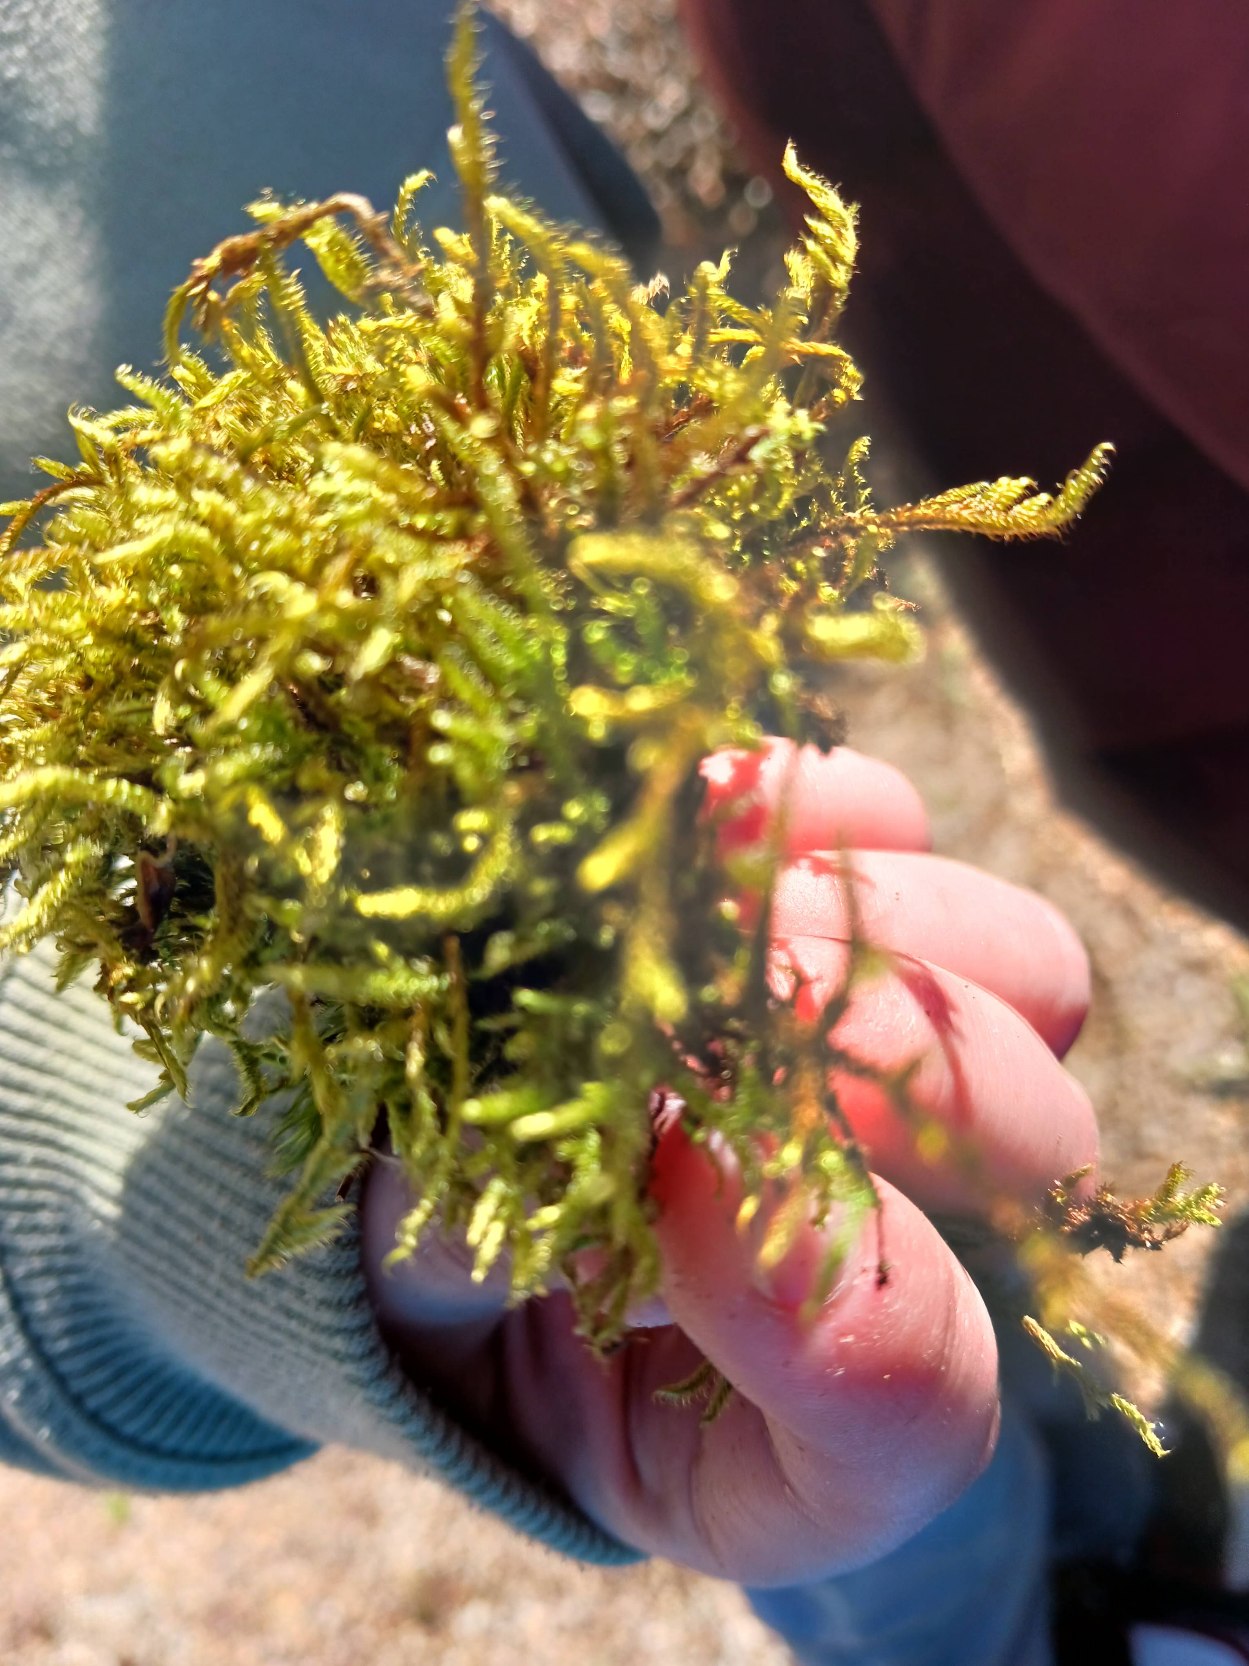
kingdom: Plantae
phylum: Bryophyta
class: Bryopsida
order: Hypnales
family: Hypnaceae
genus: Hypnum
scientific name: Hypnum cupressiforme
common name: Almindelig cypresmos
